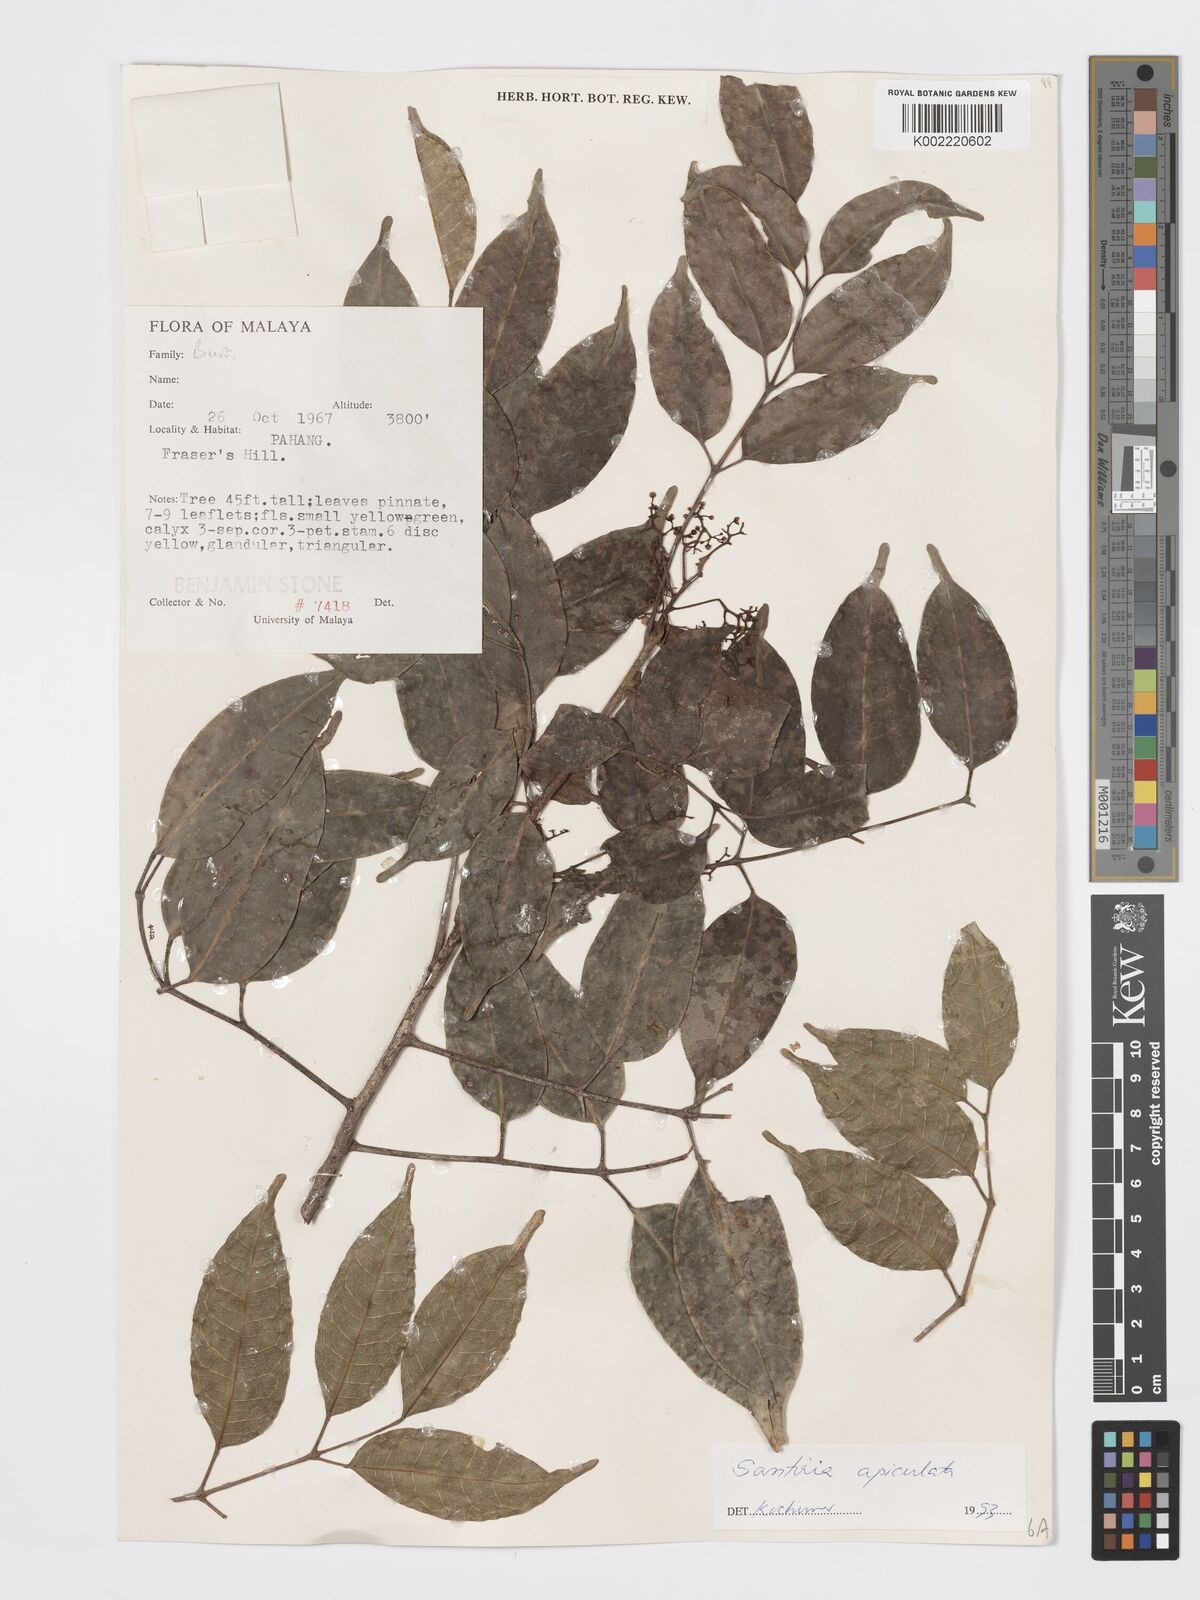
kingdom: Plantae
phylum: Tracheophyta
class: Magnoliopsida
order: Sapindales
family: Burseraceae
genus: Santiria
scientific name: Santiria apiculata
